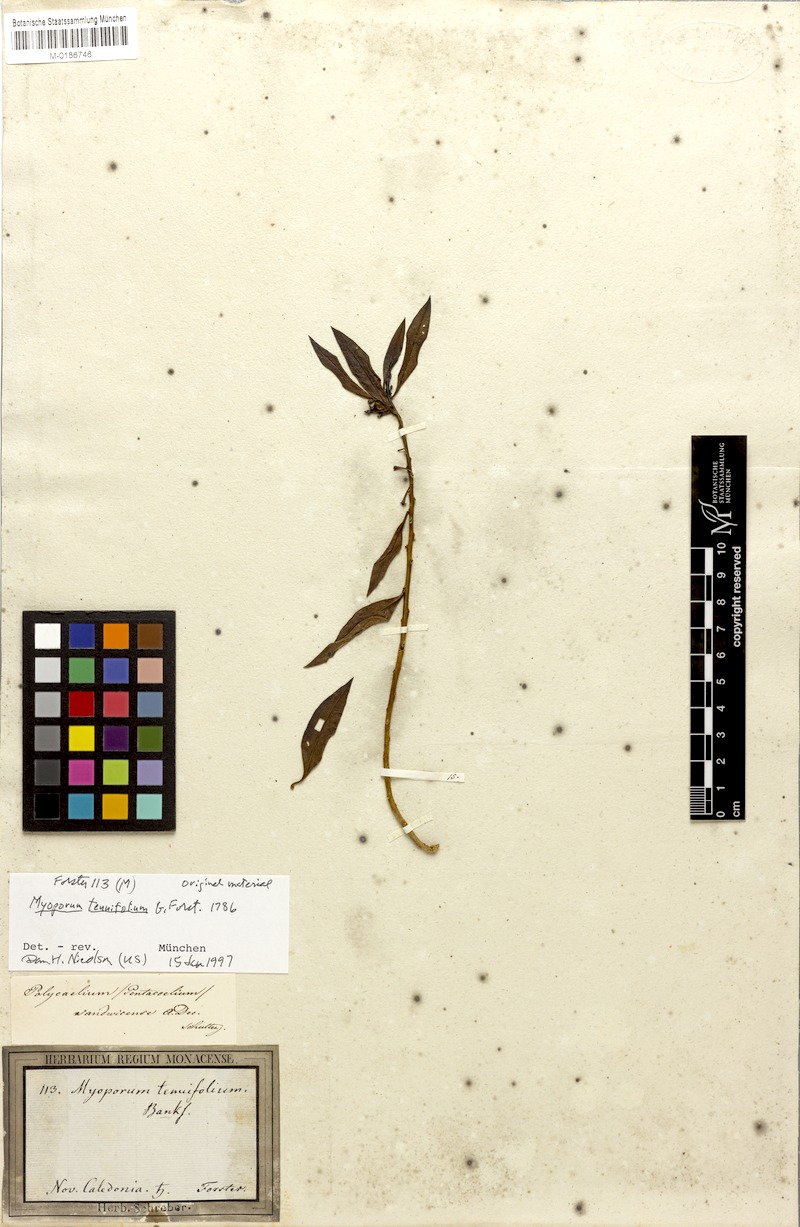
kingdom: Plantae
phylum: Tracheophyta
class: Magnoliopsida
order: Lamiales
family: Scrophulariaceae
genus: Myoporum
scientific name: Myoporum tenuifolium
